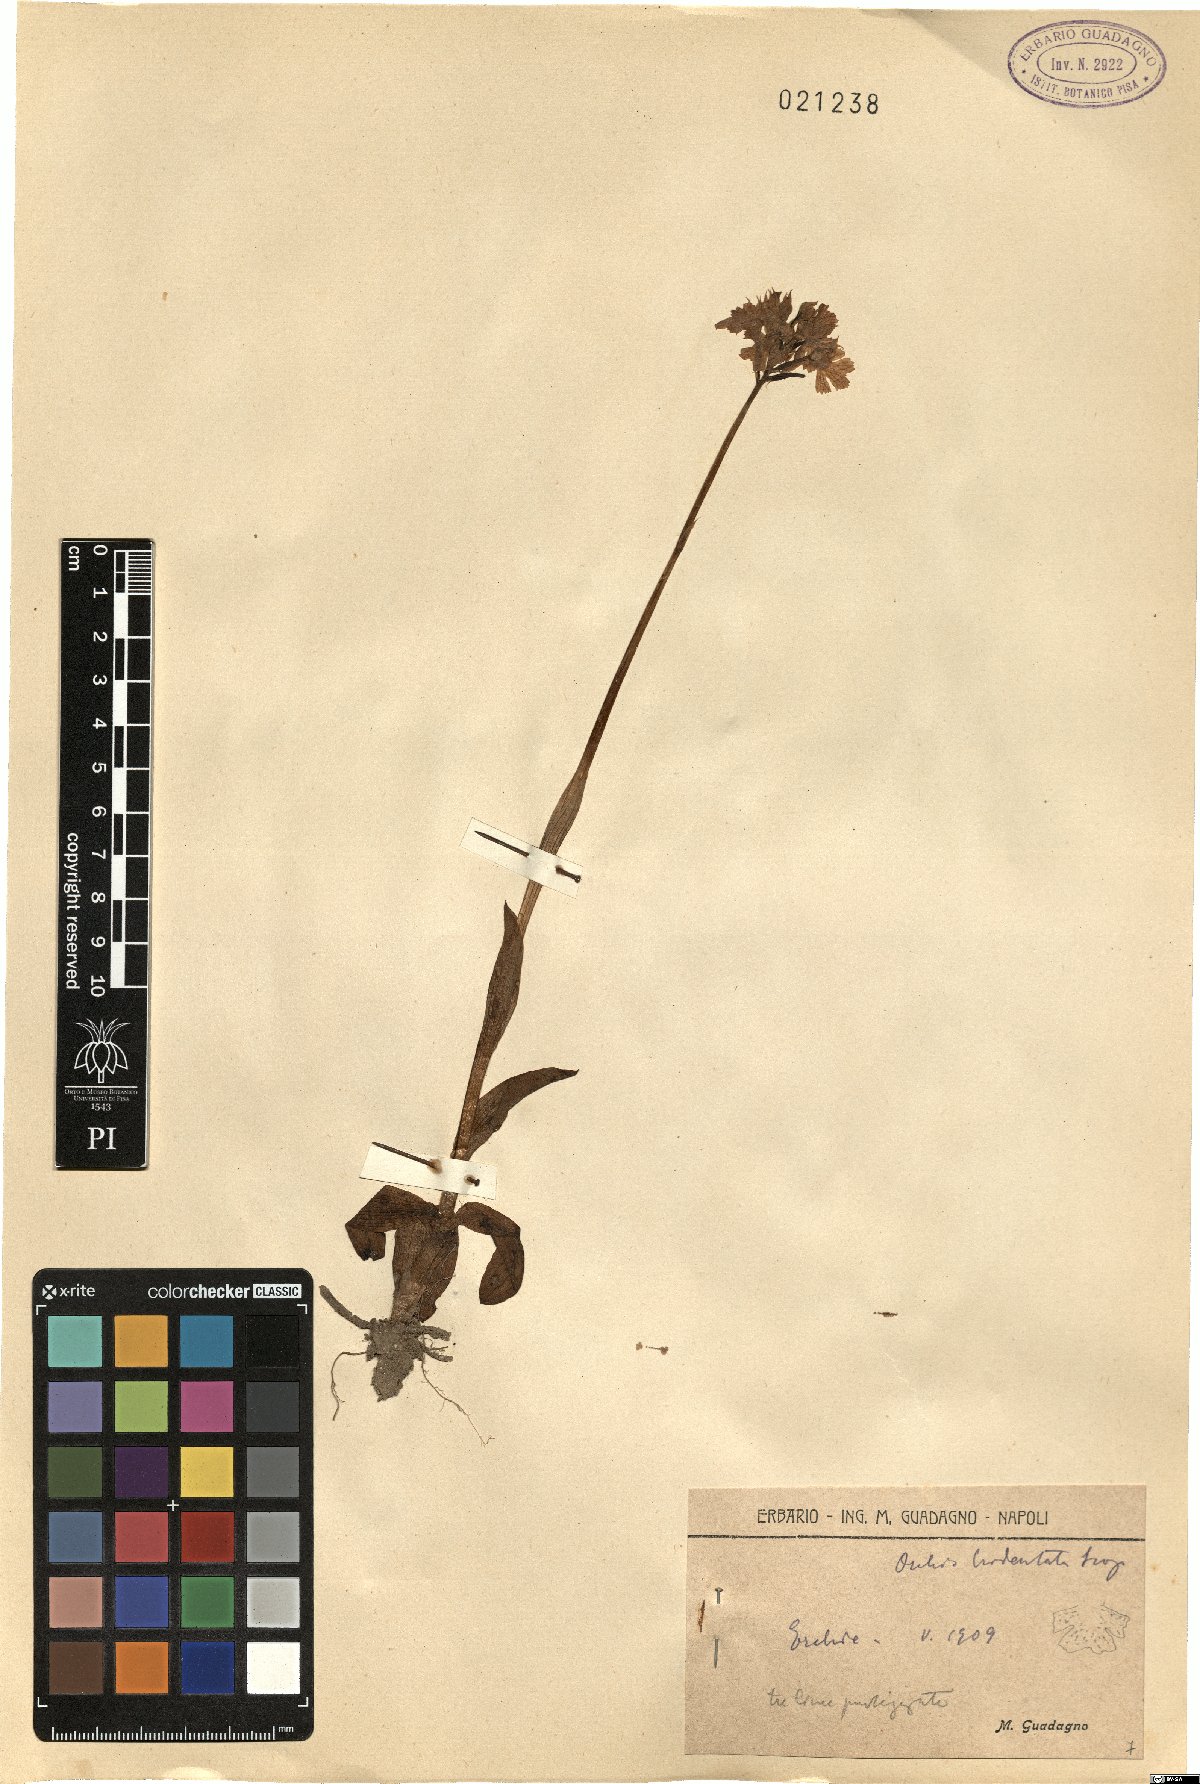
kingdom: Plantae
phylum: Tracheophyta
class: Liliopsida
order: Asparagales
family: Orchidaceae
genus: Neotinea
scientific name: Neotinea tridentata
